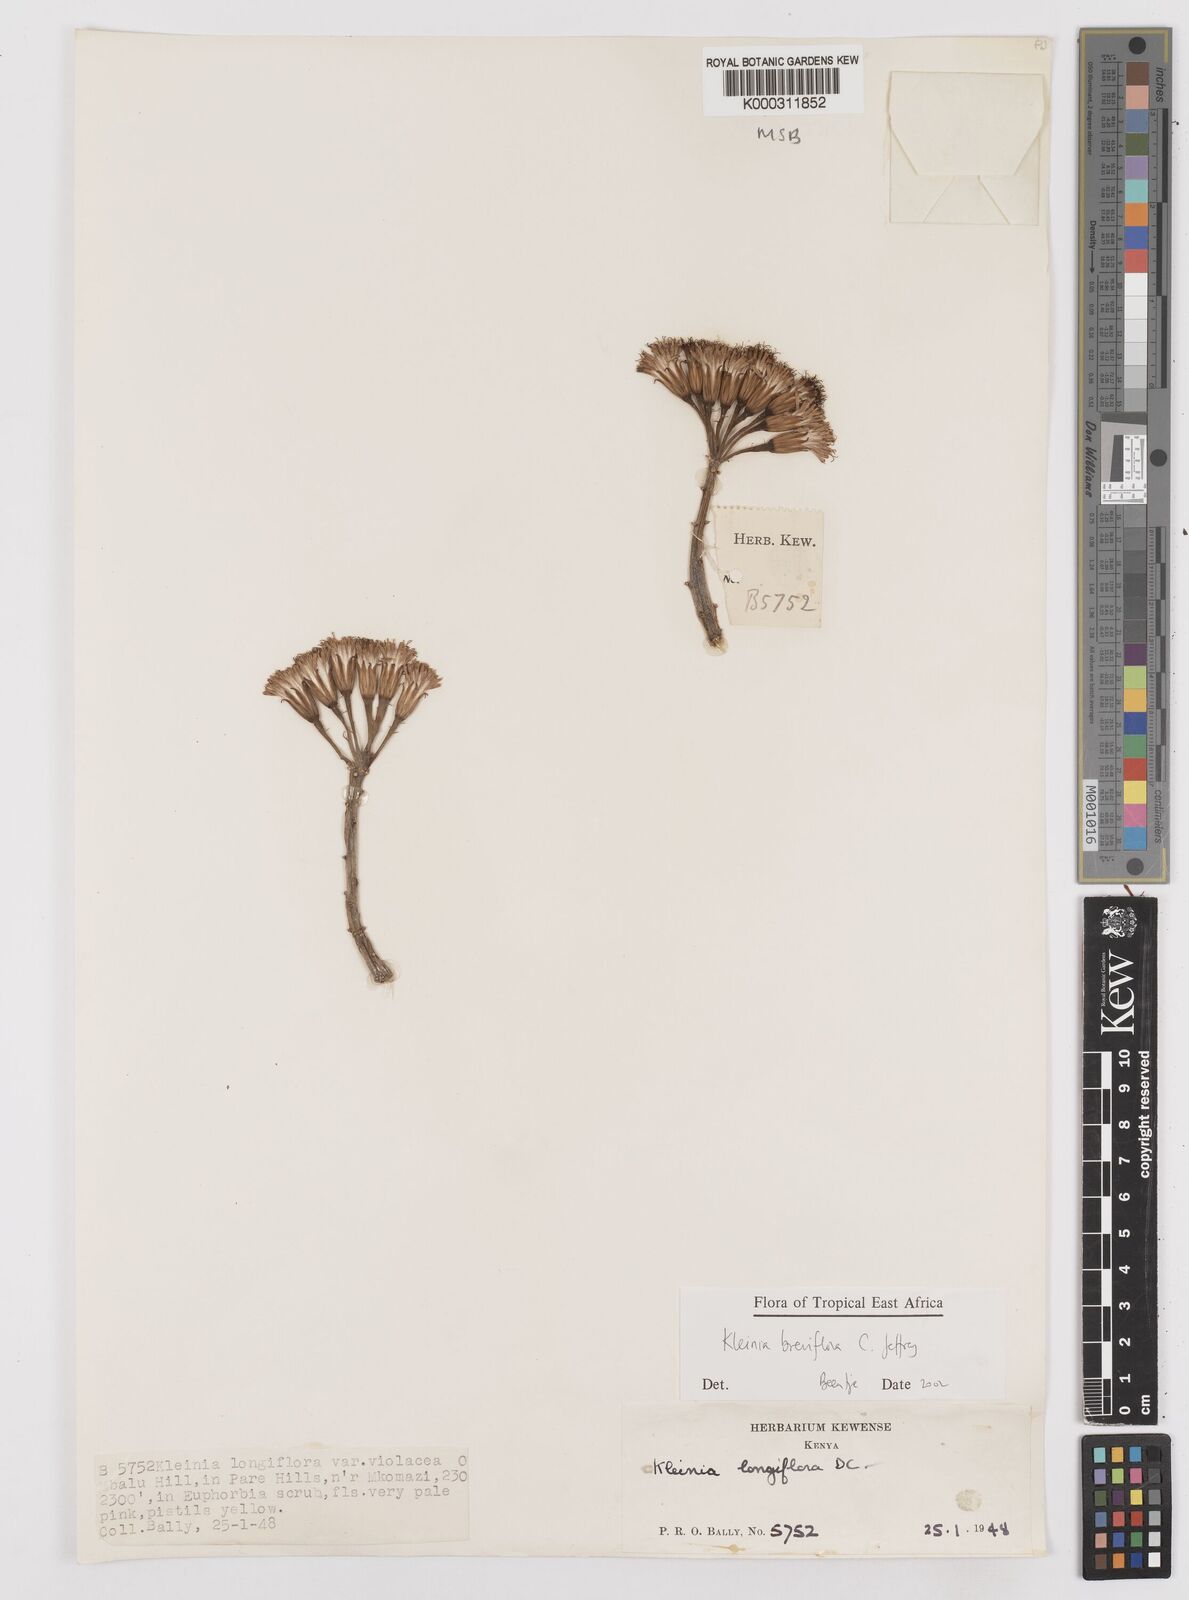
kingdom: Plantae
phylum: Tracheophyta
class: Magnoliopsida
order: Asterales
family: Asteraceae
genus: Kleinia
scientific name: Kleinia polycotoma
